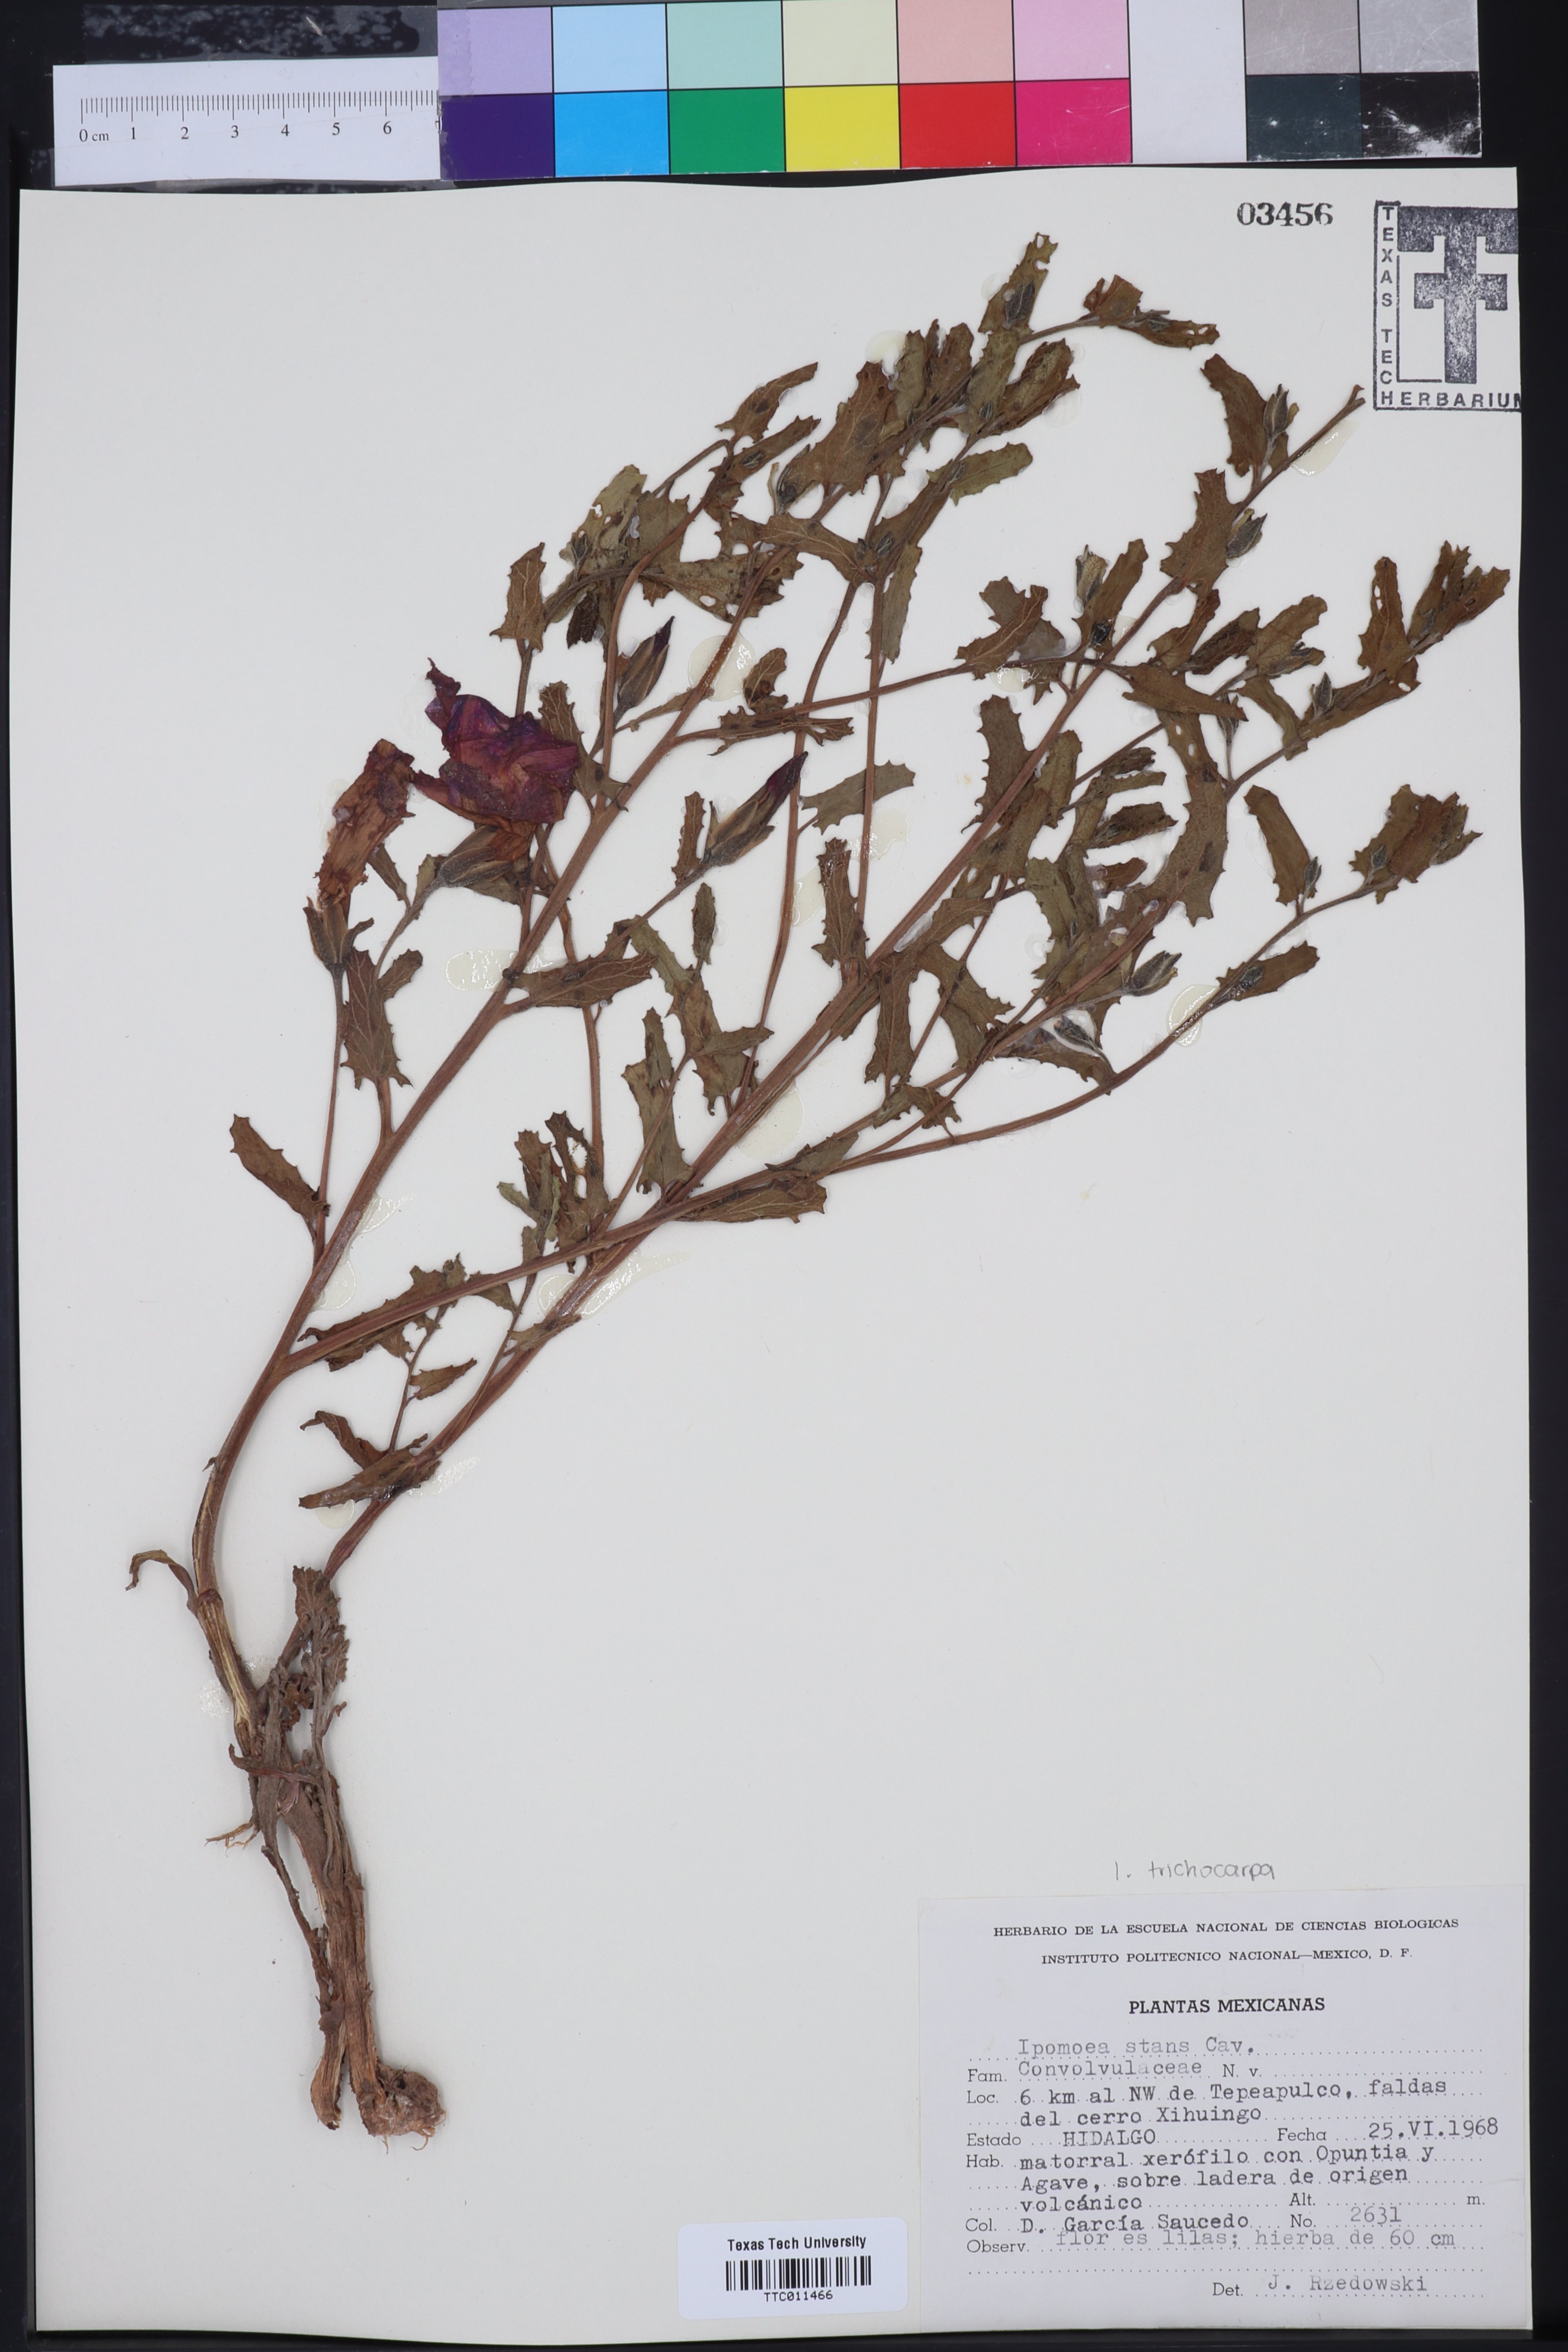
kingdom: Plantae
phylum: Tracheophyta
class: Magnoliopsida
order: Solanales
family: Convolvulaceae
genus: Ipomoea
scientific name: Ipomoea stans
